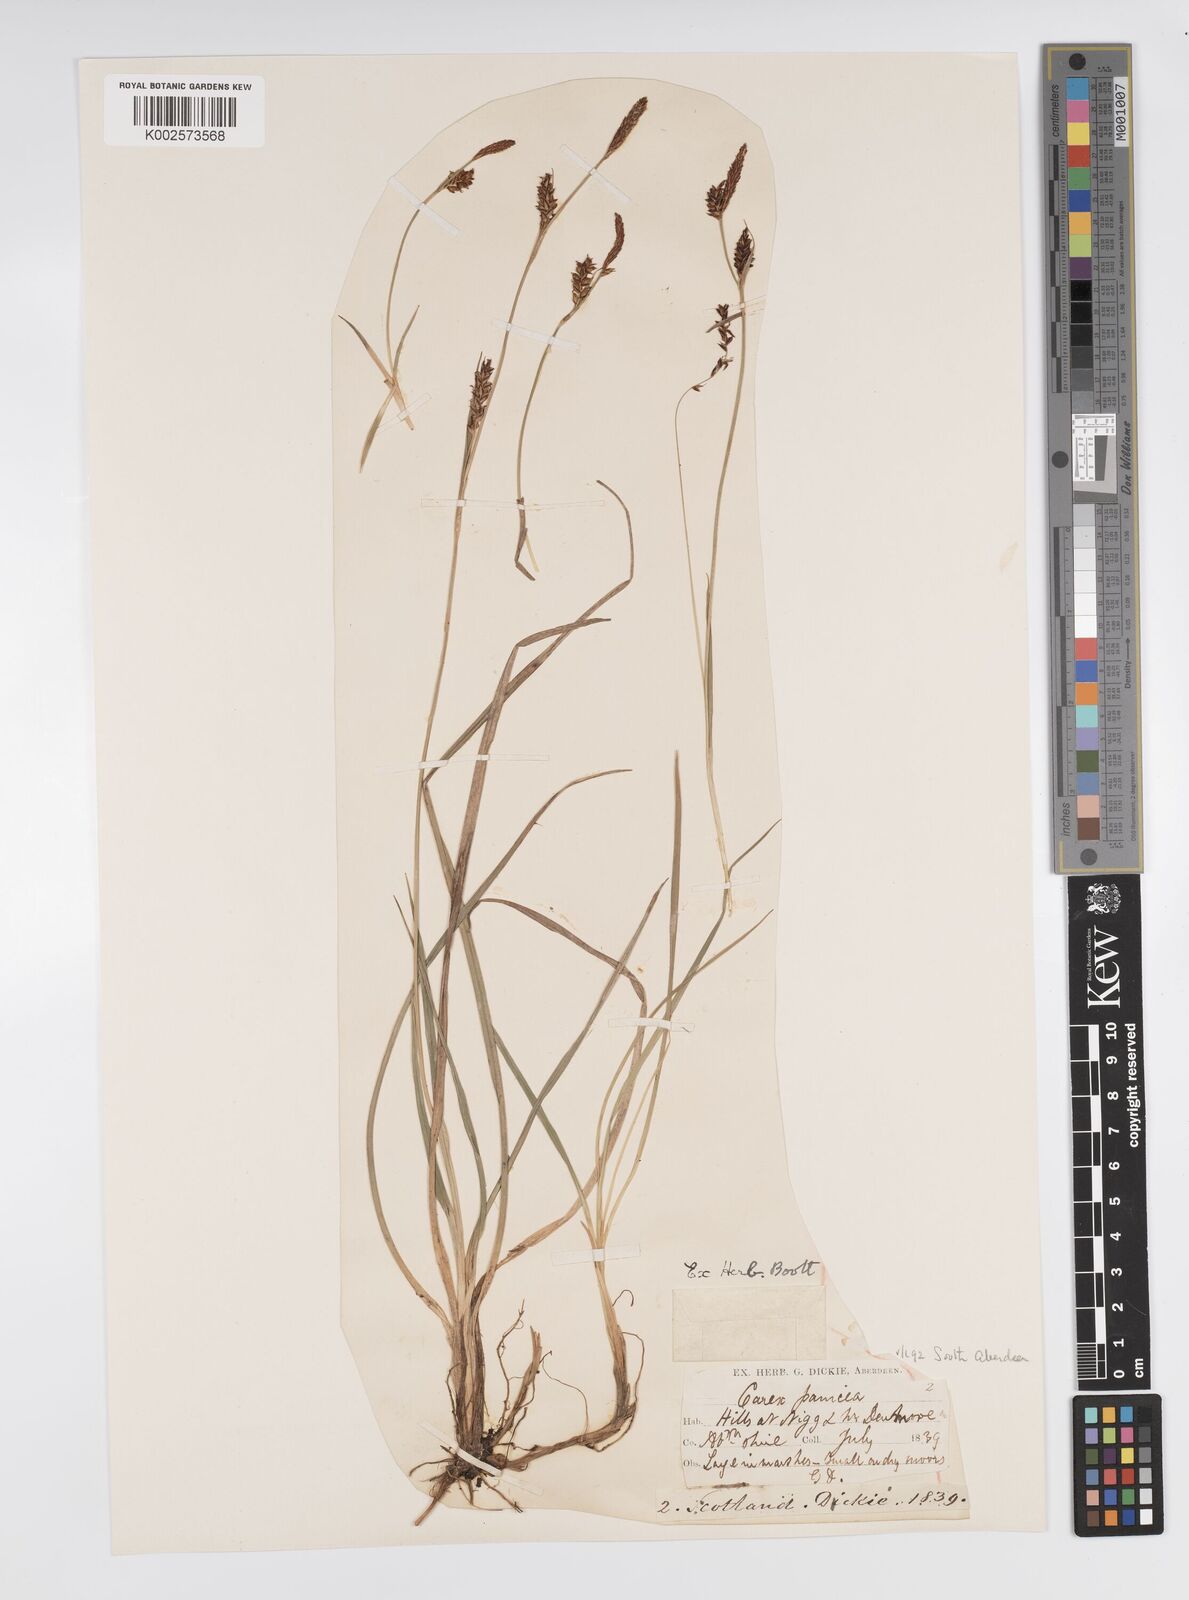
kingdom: Plantae
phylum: Tracheophyta
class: Liliopsida
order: Poales
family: Cyperaceae
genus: Carex
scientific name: Carex panicea
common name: Carnation sedge
